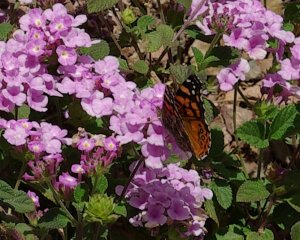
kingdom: Animalia
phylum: Arthropoda
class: Insecta
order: Lepidoptera
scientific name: Lepidoptera
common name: Butterflies
